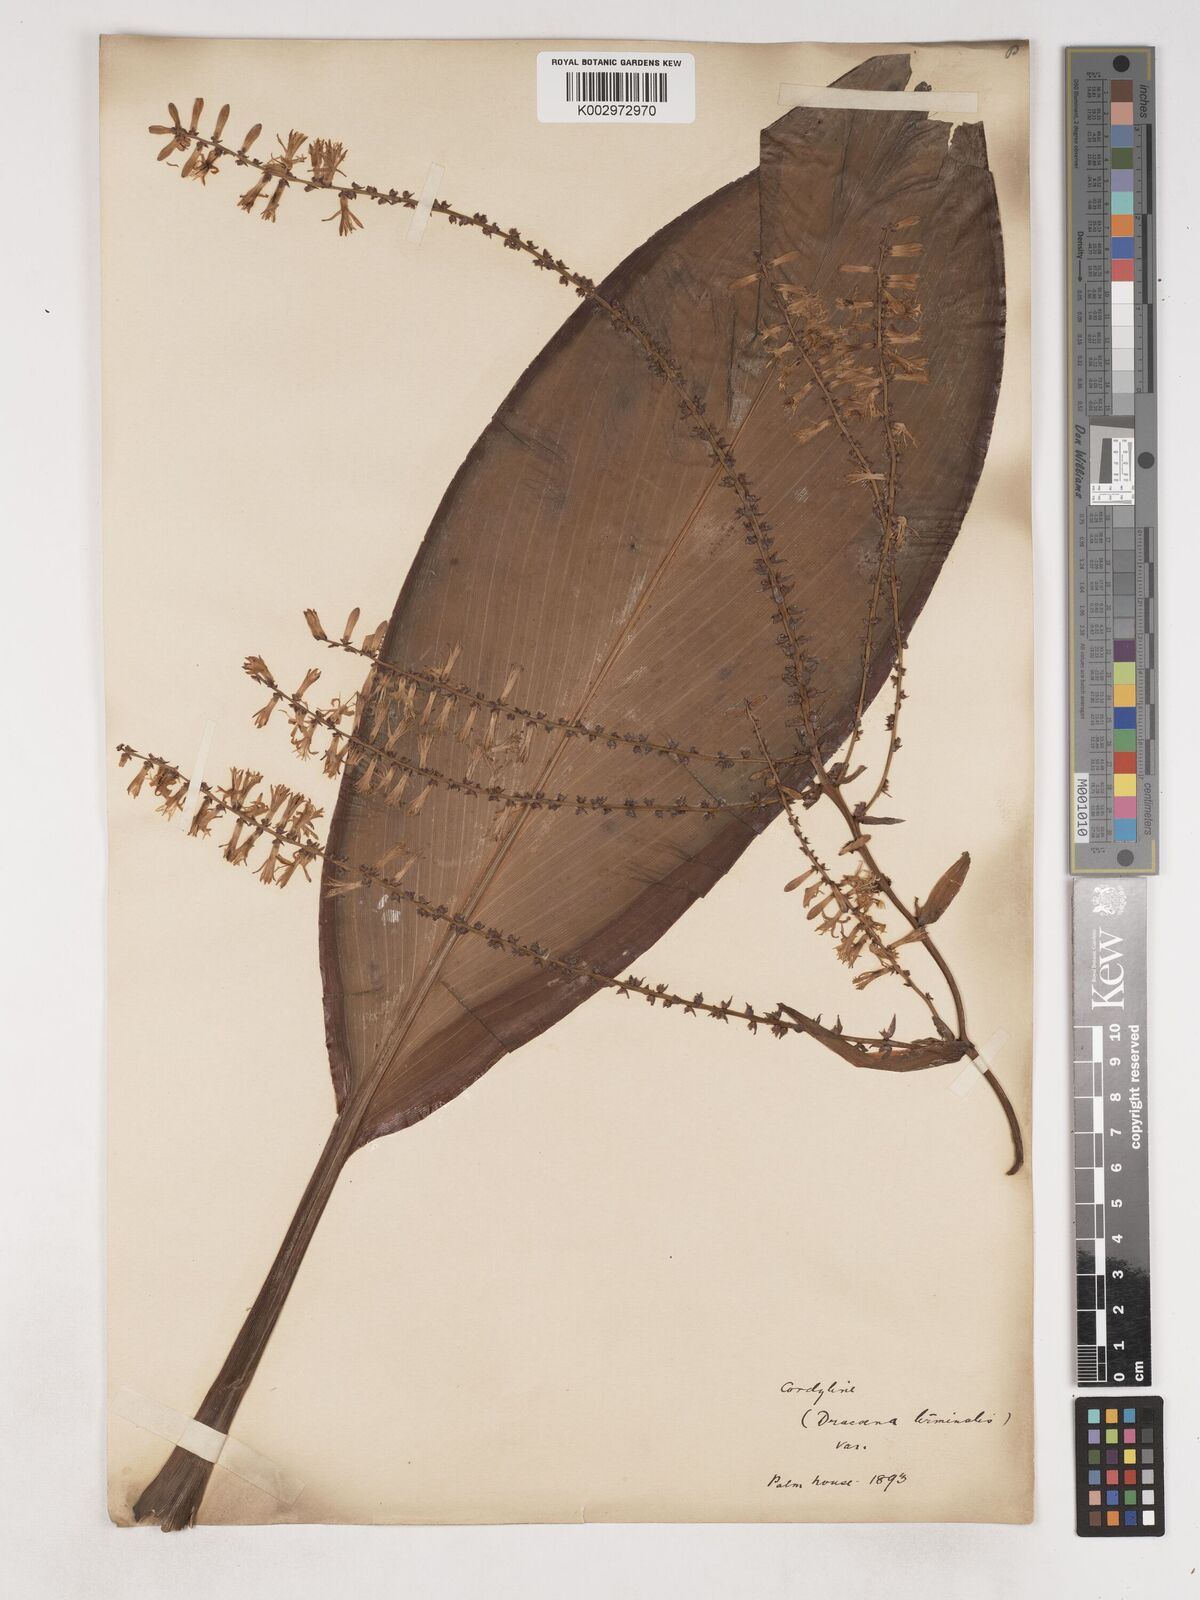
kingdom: Plantae
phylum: Tracheophyta
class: Liliopsida
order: Asparagales
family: Asparagaceae
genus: Cordyline
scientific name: Cordyline fruticosa
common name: Good-luck-plant
